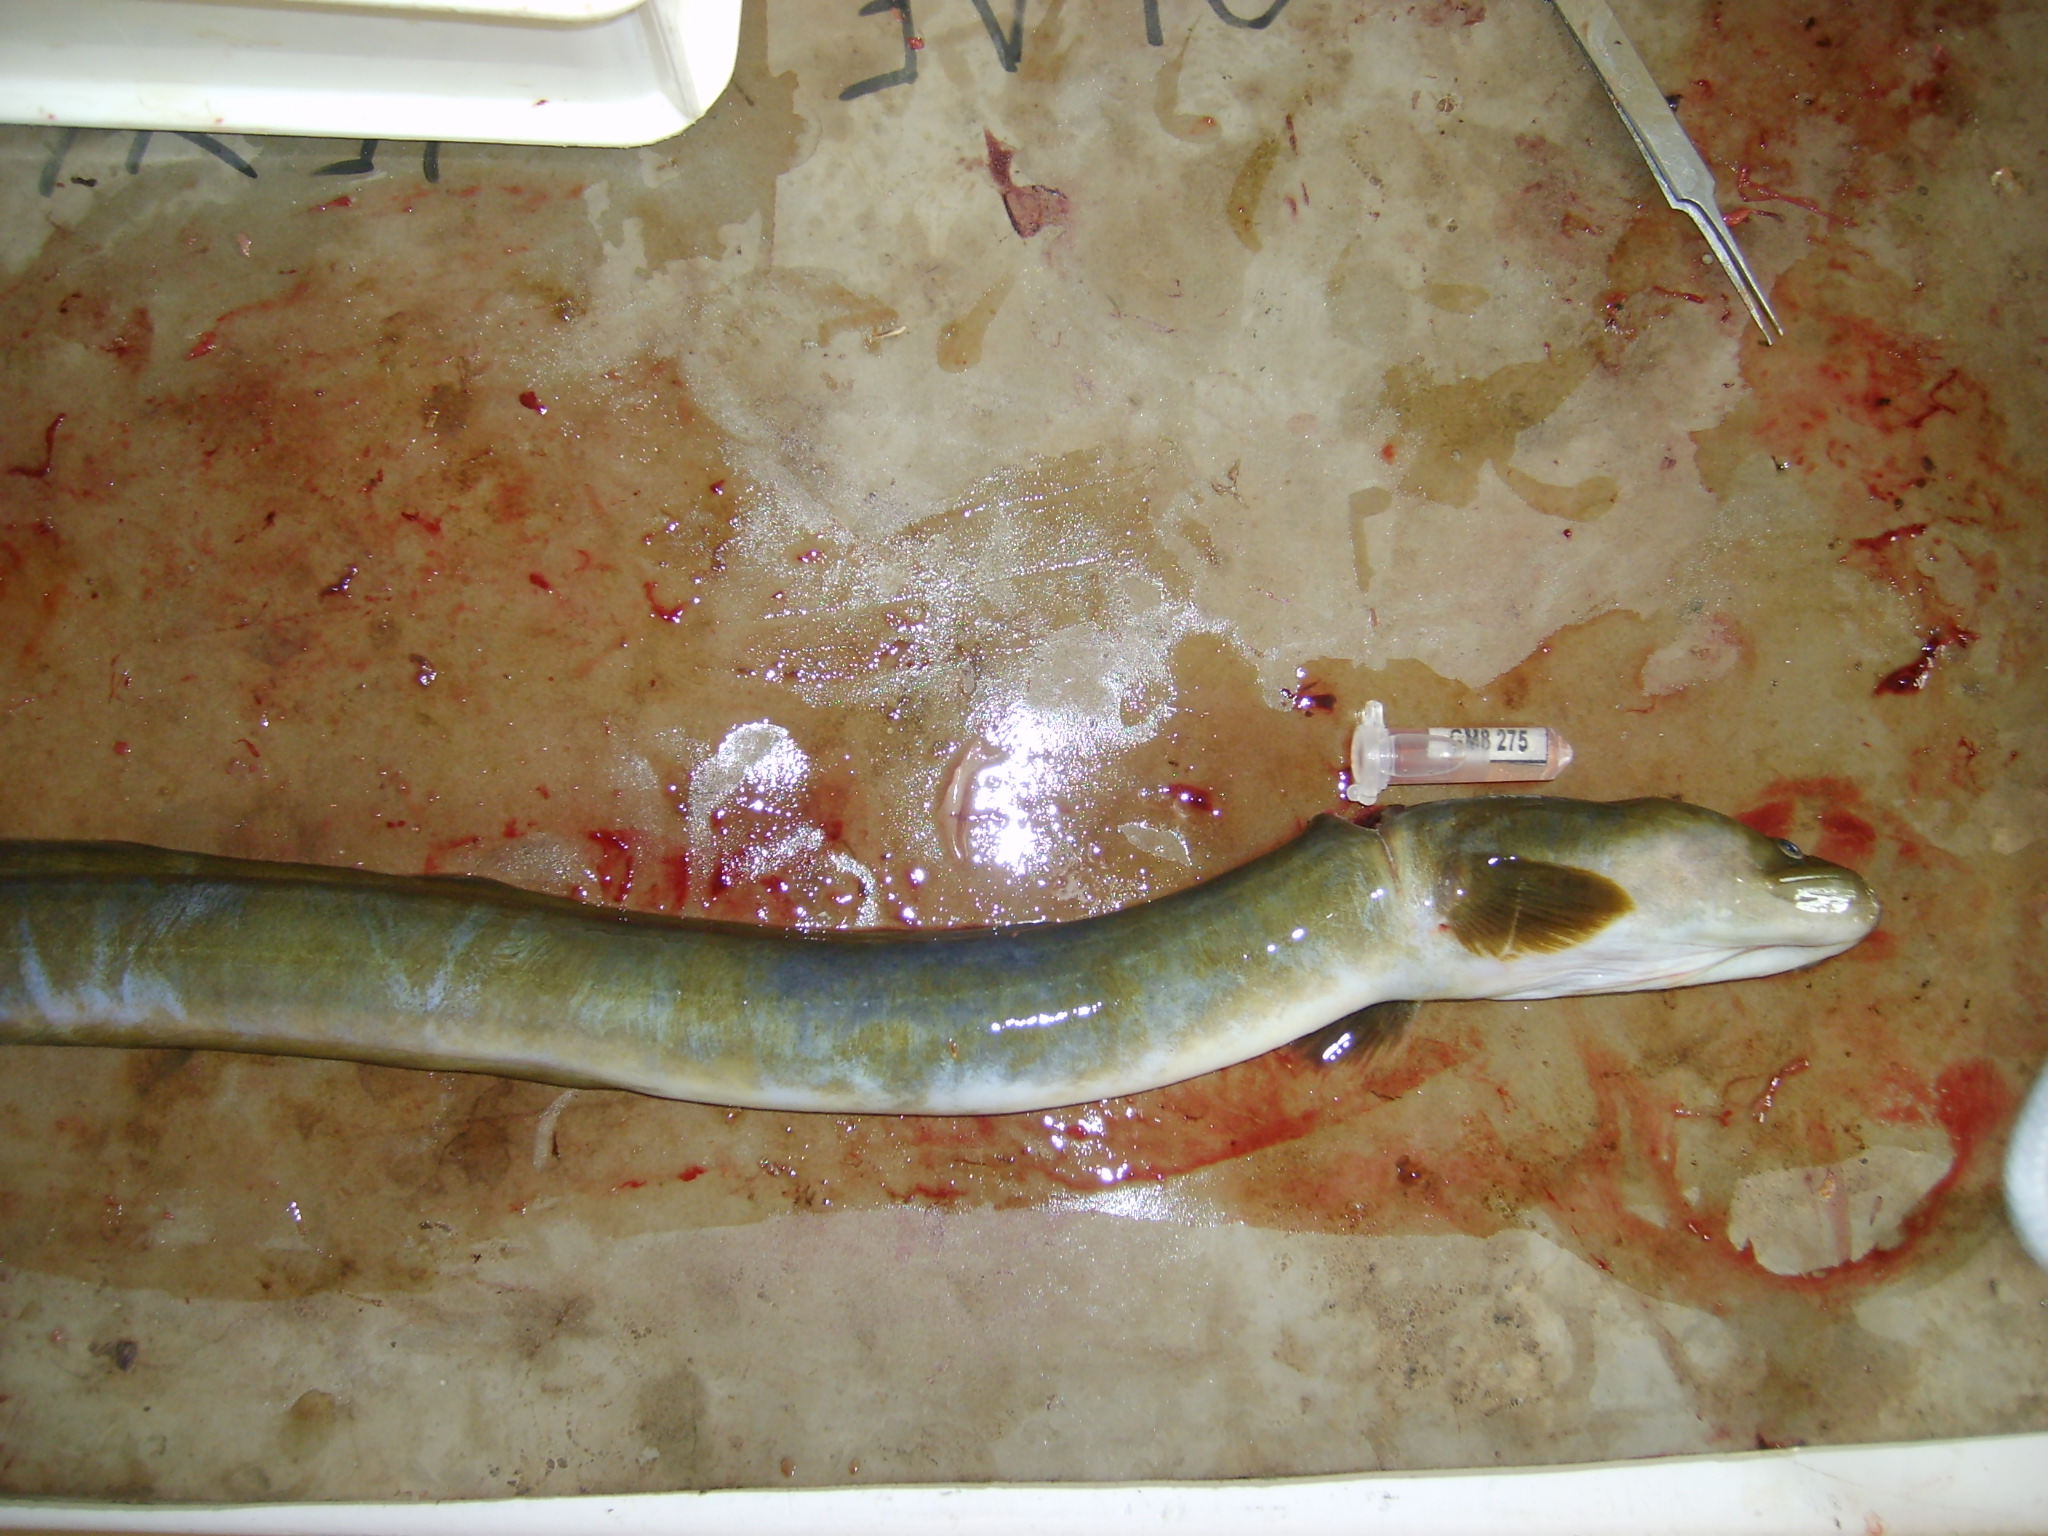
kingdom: Animalia
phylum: Chordata
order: Anguilliformes
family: Anguillidae
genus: Anguilla
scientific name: Anguilla mossambica
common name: African longfin eel
